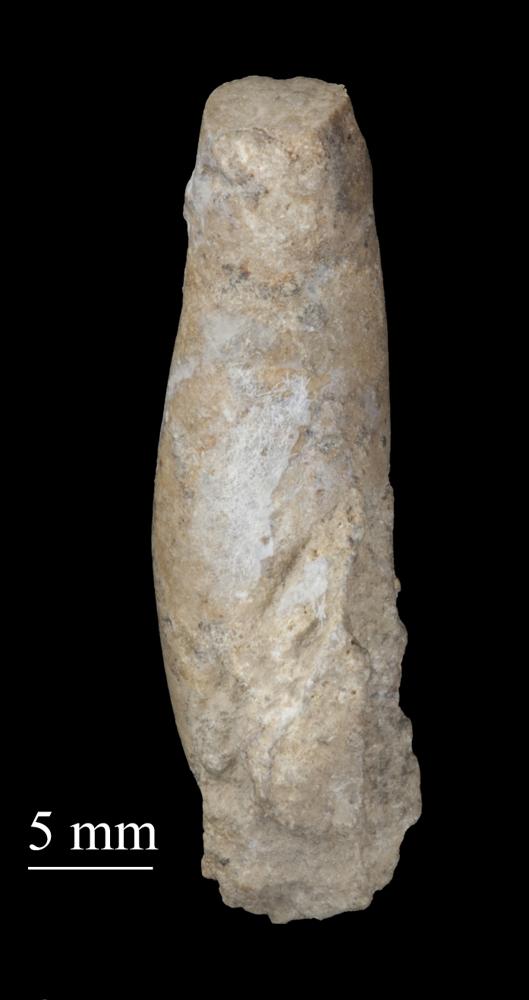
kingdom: Animalia
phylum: Mollusca
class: Gastropoda
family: Subulitidae
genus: Subulites
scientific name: Subulites subula
